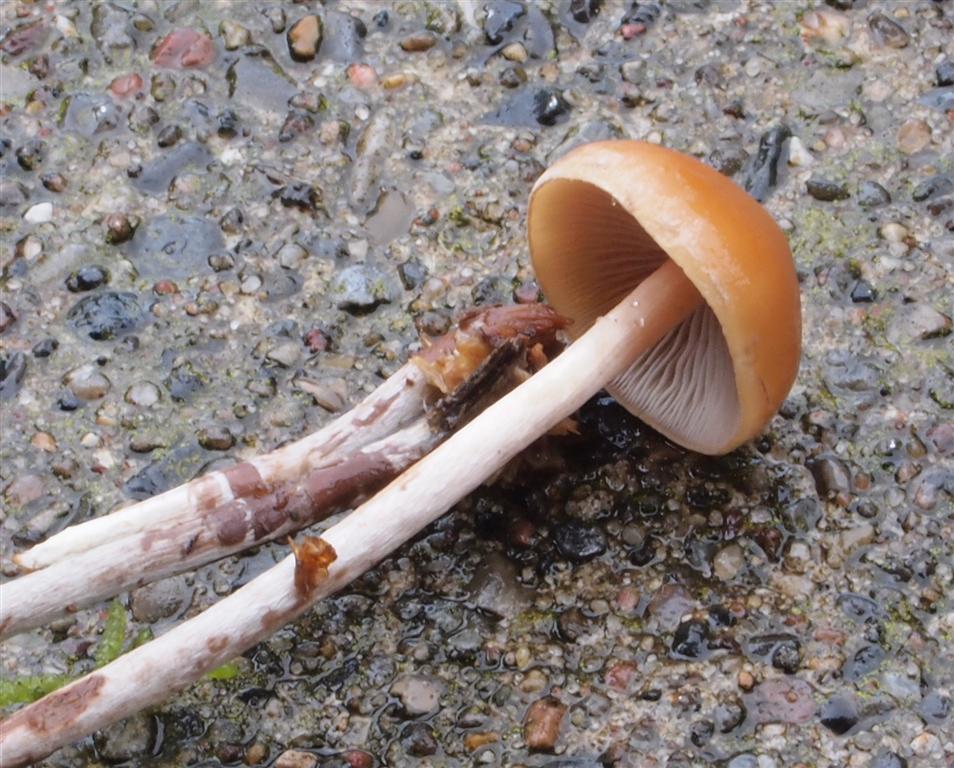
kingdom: Fungi
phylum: Basidiomycota
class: Agaricomycetes
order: Agaricales
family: Strophariaceae
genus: Hypholoma
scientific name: Hypholoma marginatum
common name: enlig svovlhat
